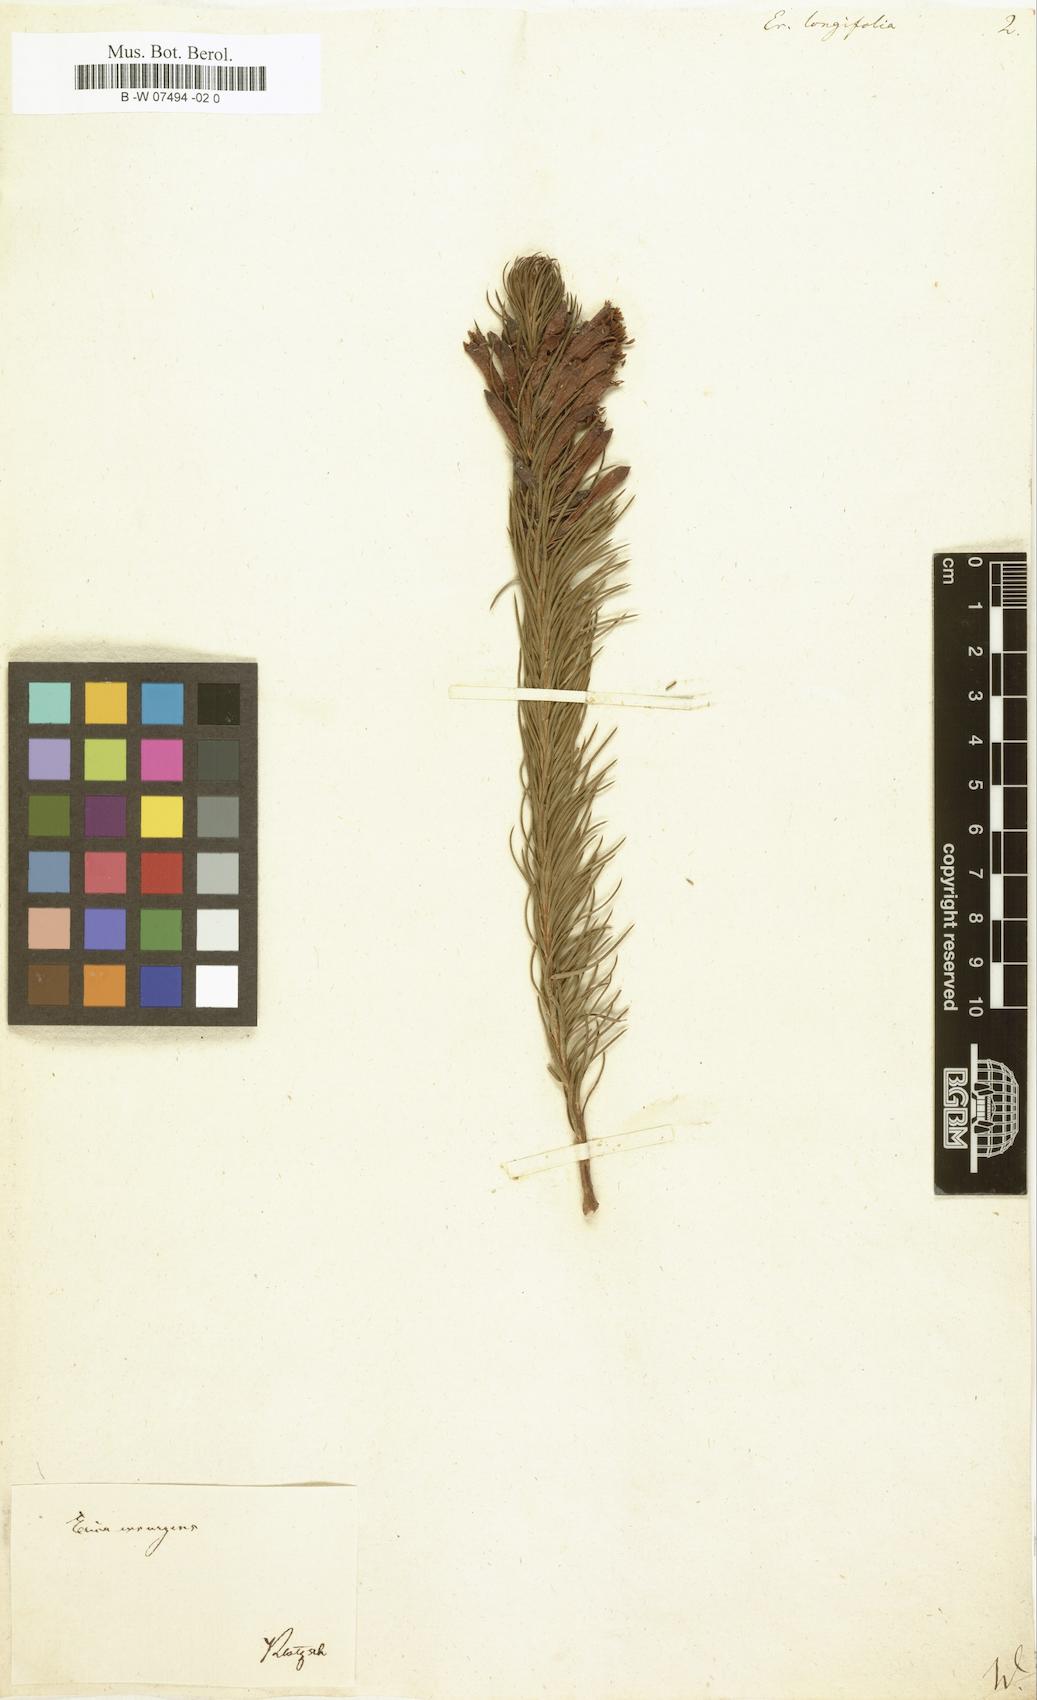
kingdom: Plantae
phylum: Tracheophyta
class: Magnoliopsida
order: Ericales
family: Ericaceae
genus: Erica
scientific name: Erica viscaria
